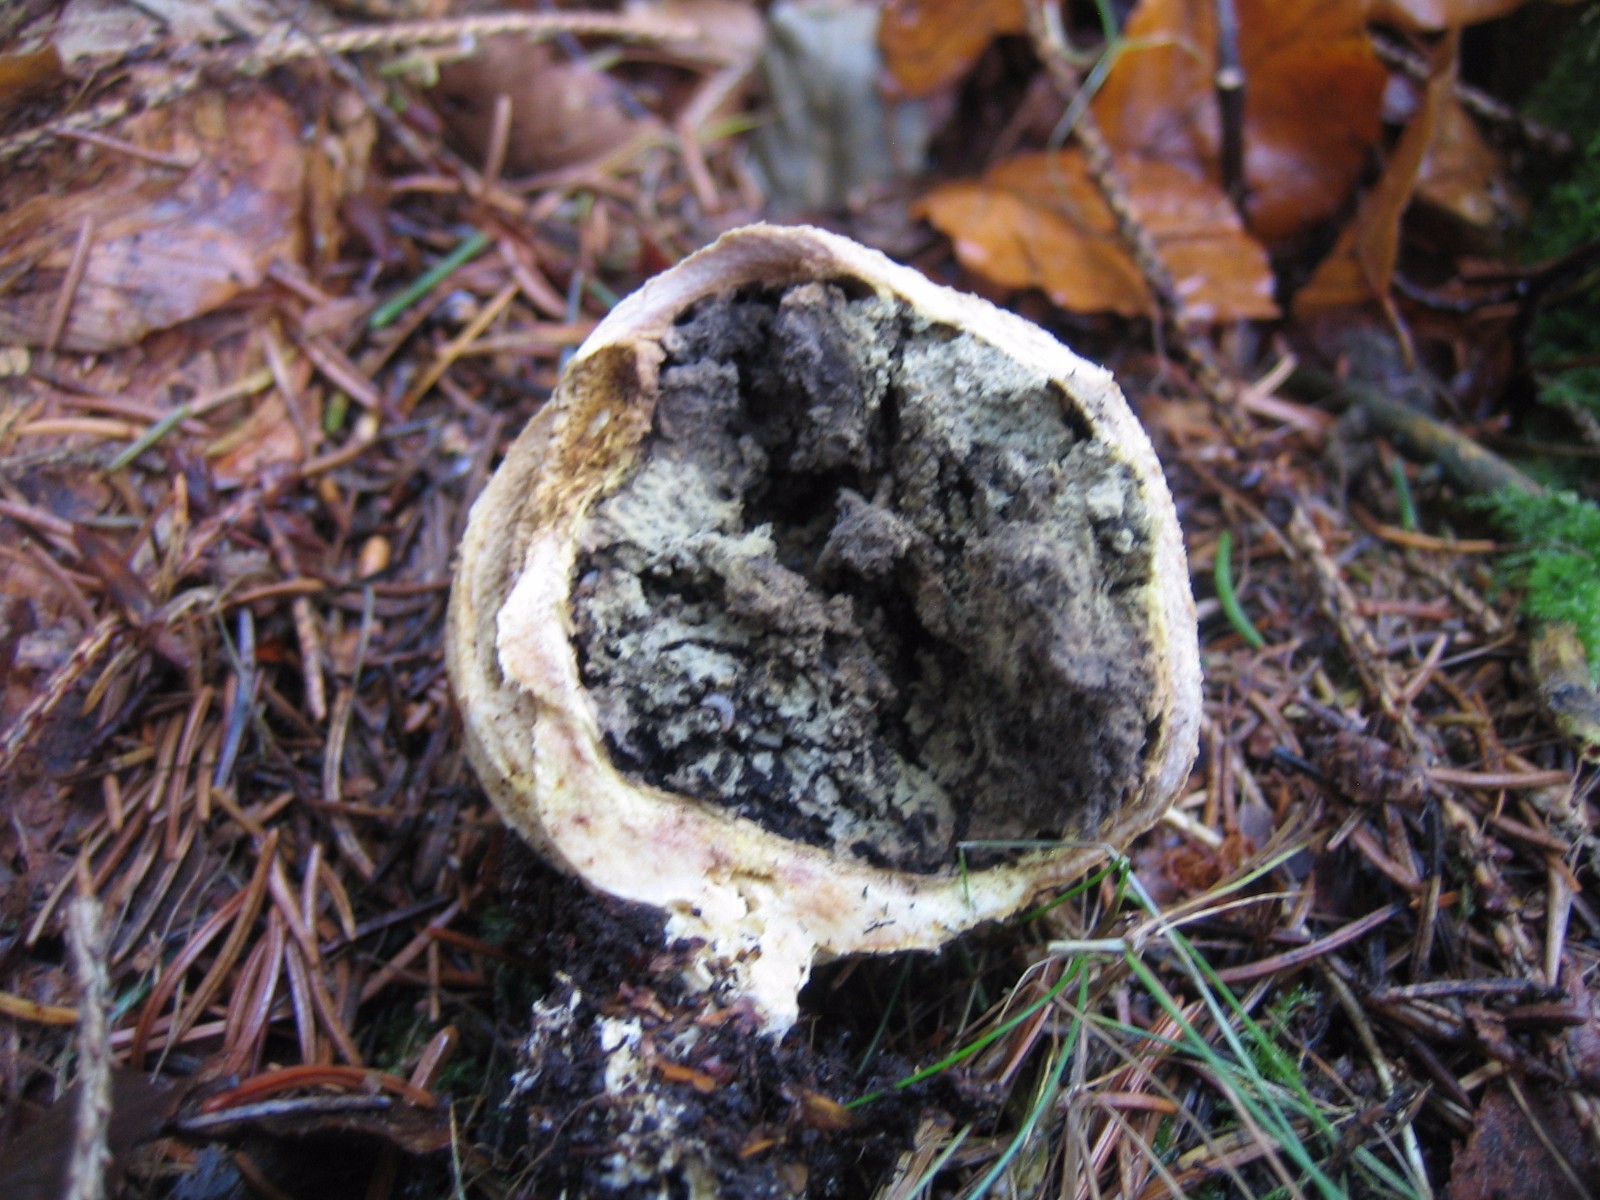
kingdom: Fungi
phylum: Basidiomycota
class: Agaricomycetes
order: Boletales
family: Sclerodermataceae
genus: Scleroderma
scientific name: Scleroderma citrinum
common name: almindelig bruskbold
